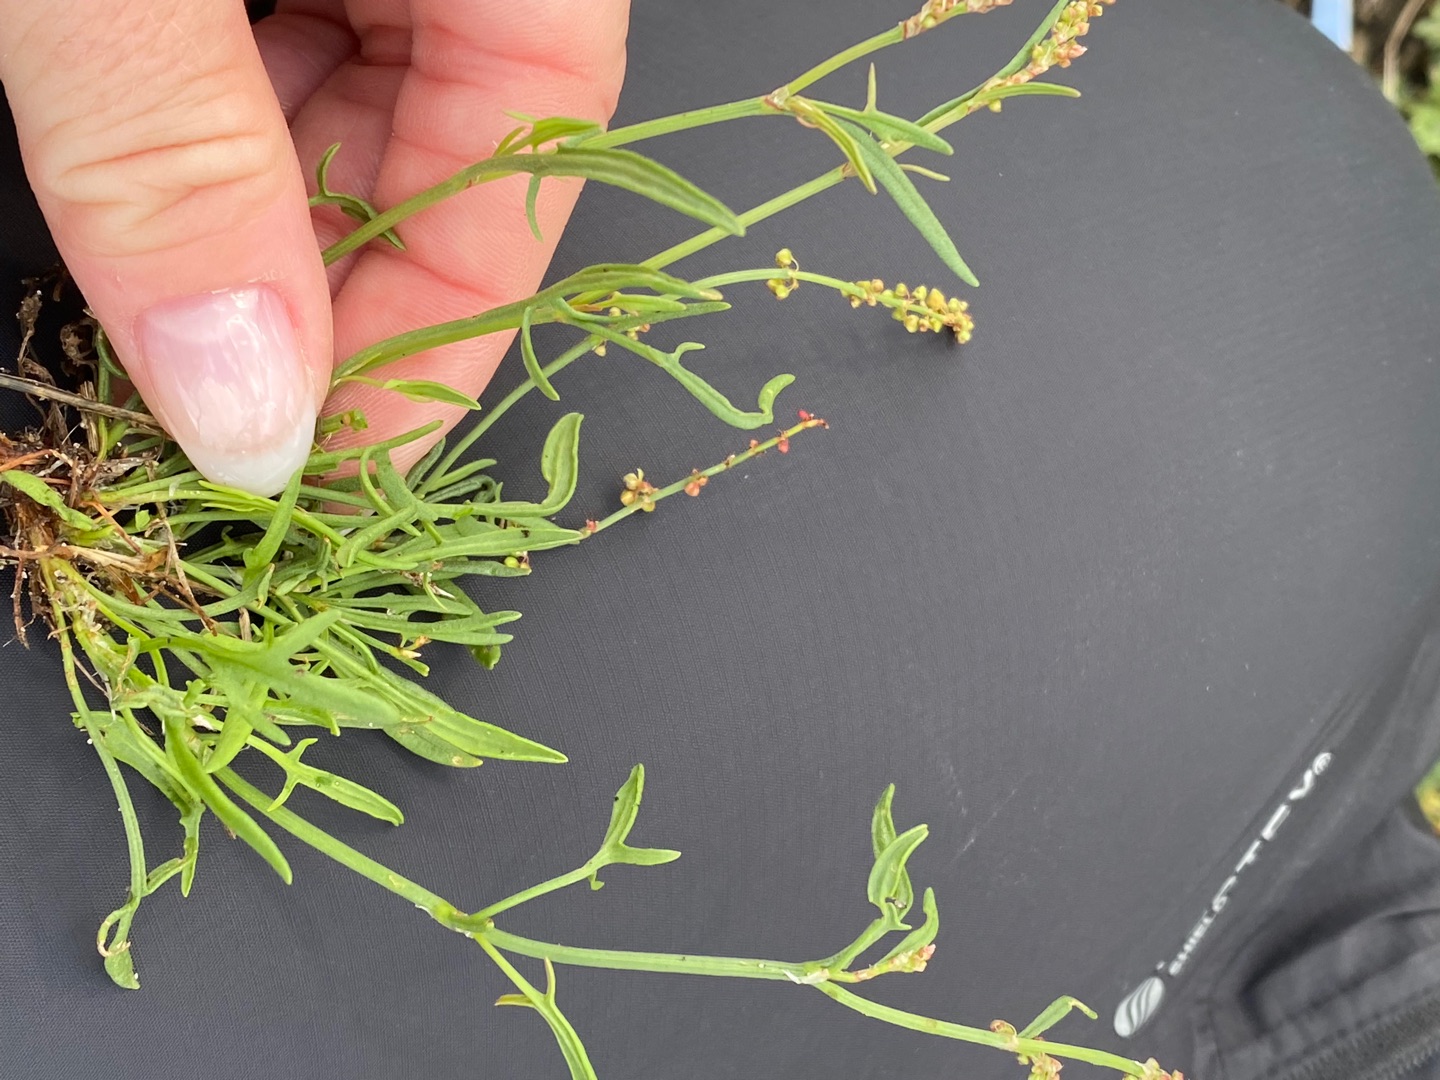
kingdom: Plantae
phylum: Tracheophyta
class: Magnoliopsida
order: Caryophyllales
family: Polygonaceae
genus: Rumex
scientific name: Rumex acetosella
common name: Rødknæ
